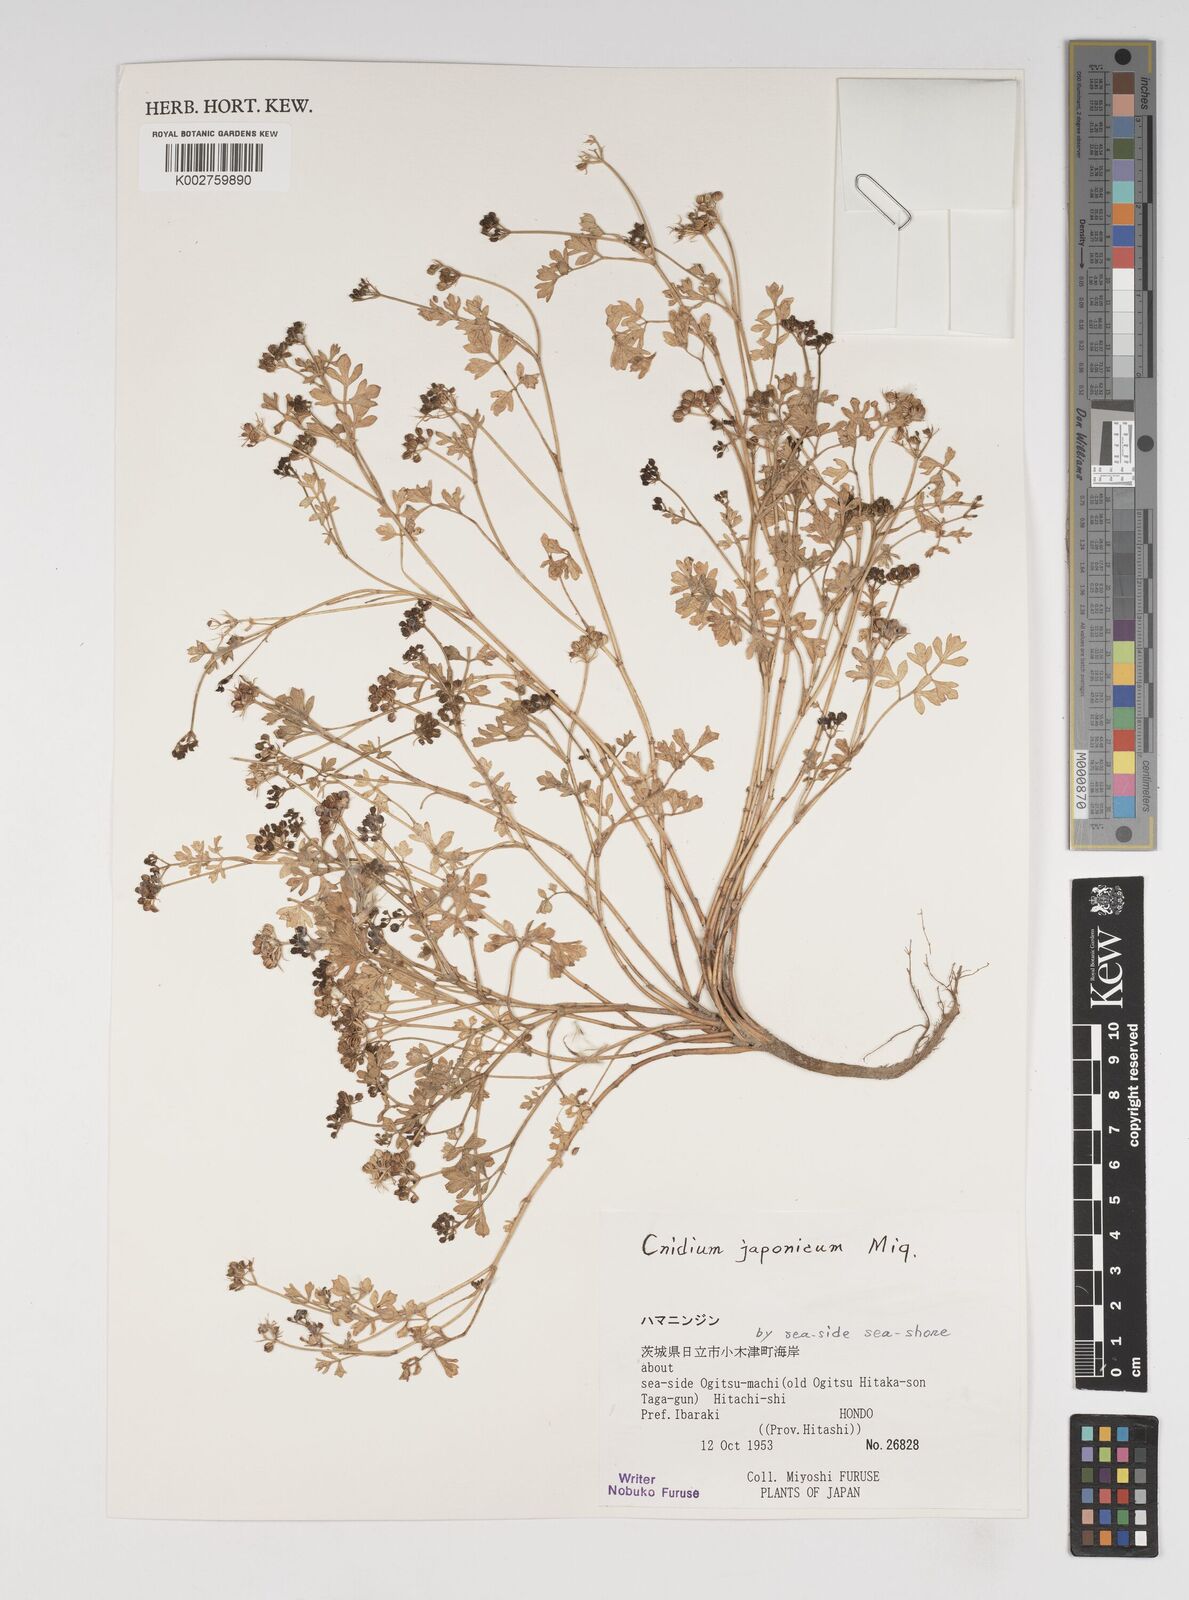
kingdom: Plantae
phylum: Tracheophyta
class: Magnoliopsida
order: Apiales
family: Apiaceae
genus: Cnidium
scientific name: Cnidium japonicum
